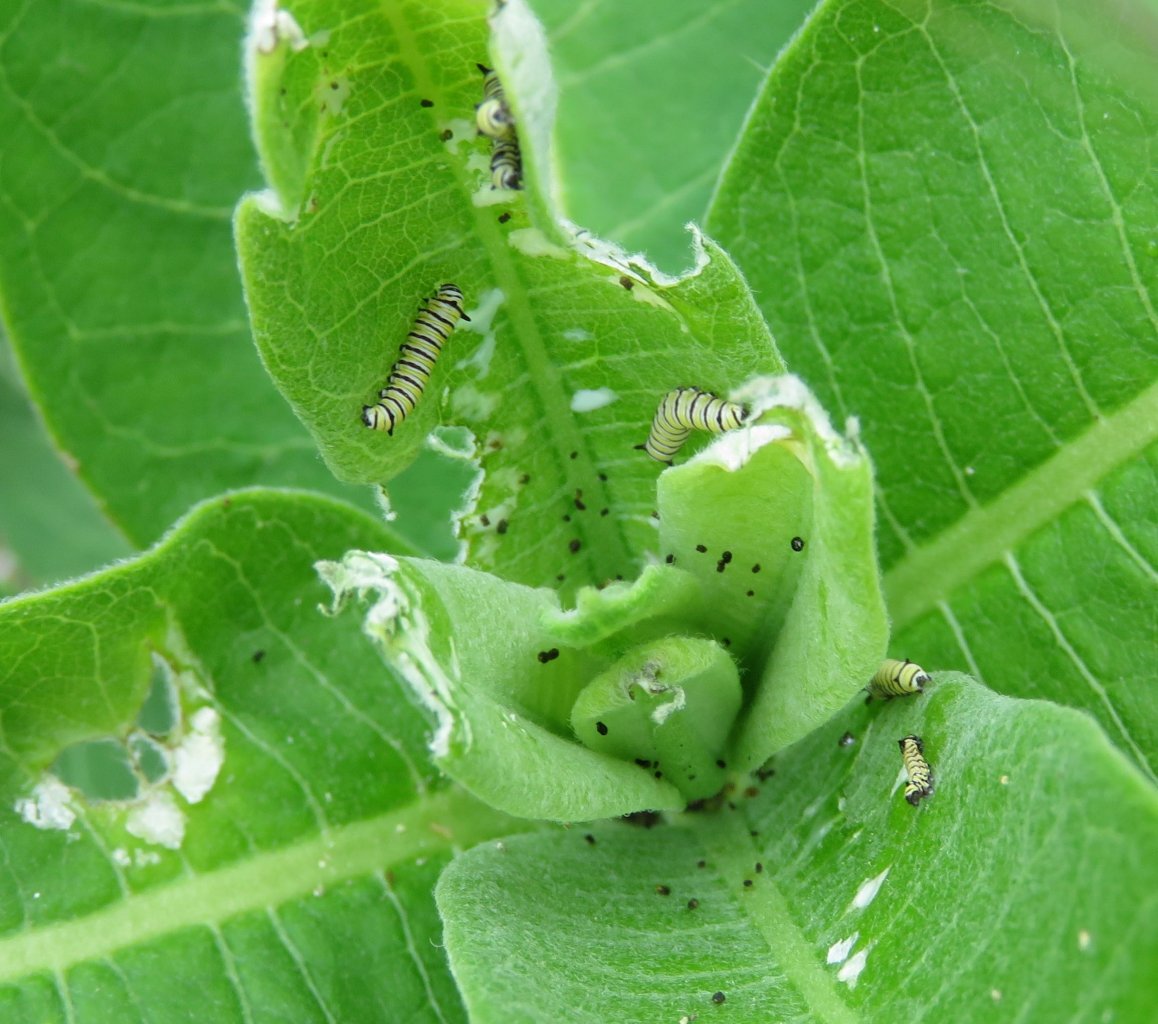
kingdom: Animalia
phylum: Arthropoda
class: Insecta
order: Lepidoptera
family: Nymphalidae
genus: Danaus
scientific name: Danaus plexippus
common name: Monarch
